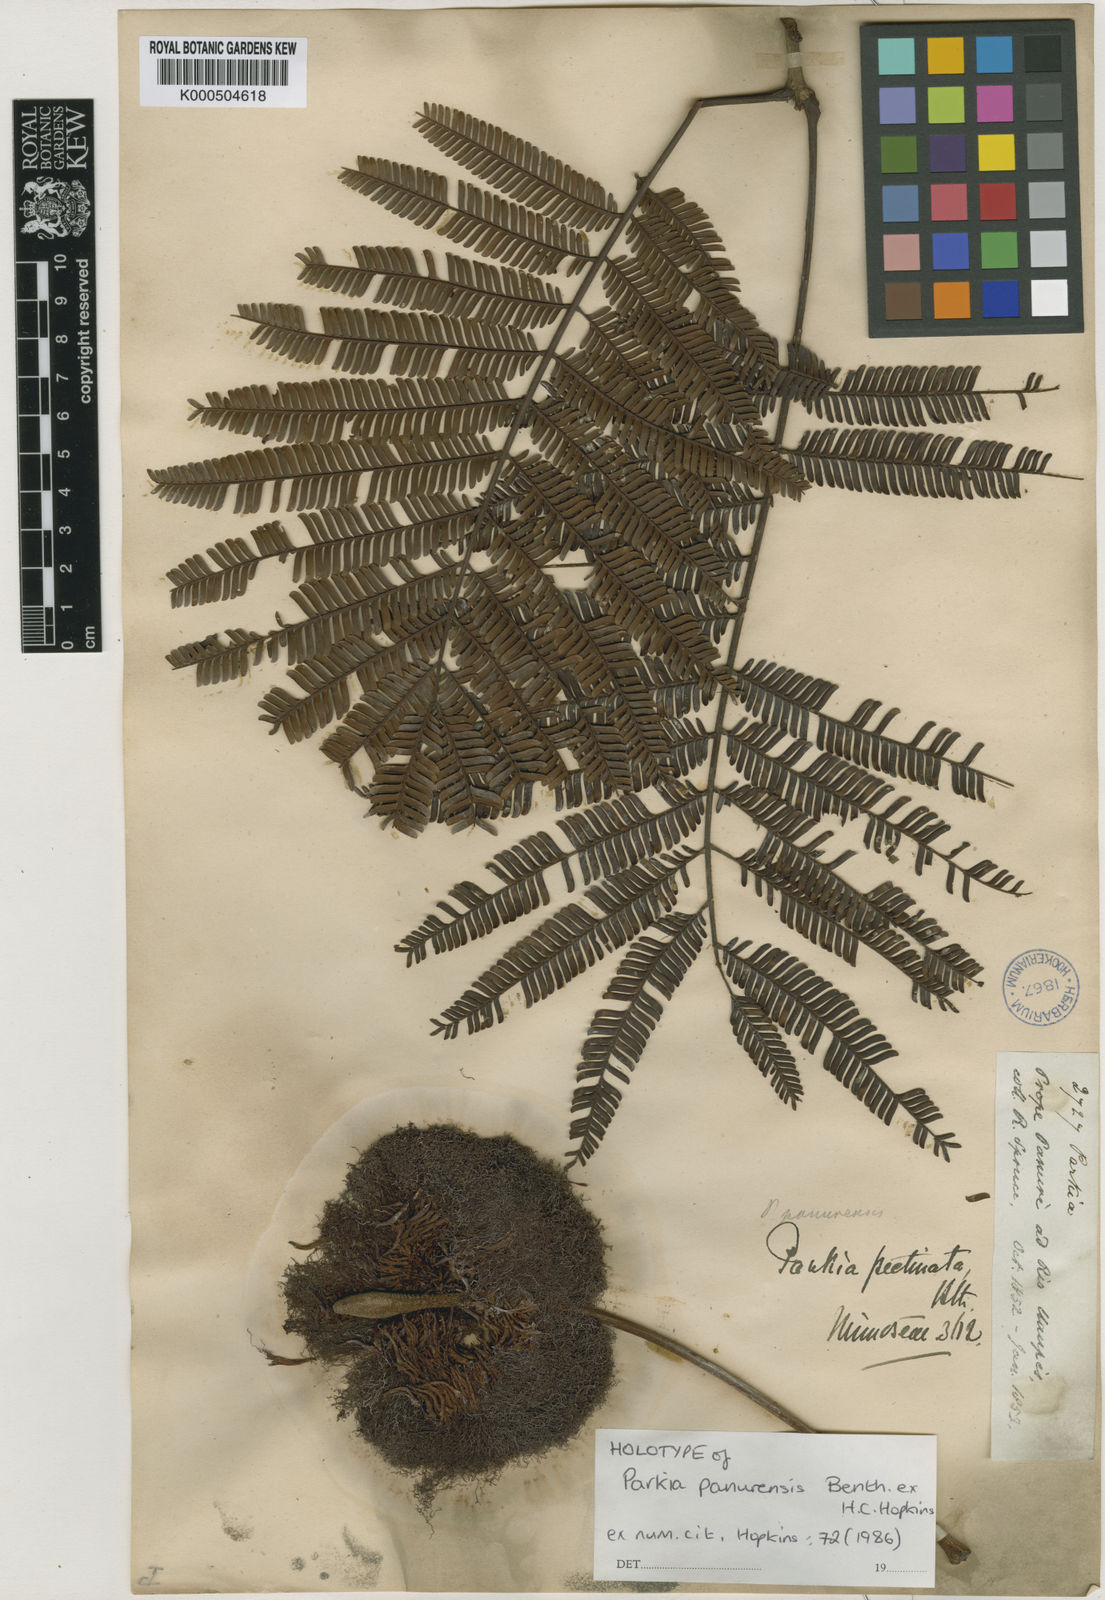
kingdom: Plantae
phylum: Tracheophyta
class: Magnoliopsida
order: Fabales
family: Fabaceae
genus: Parkia
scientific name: Parkia pectinata
